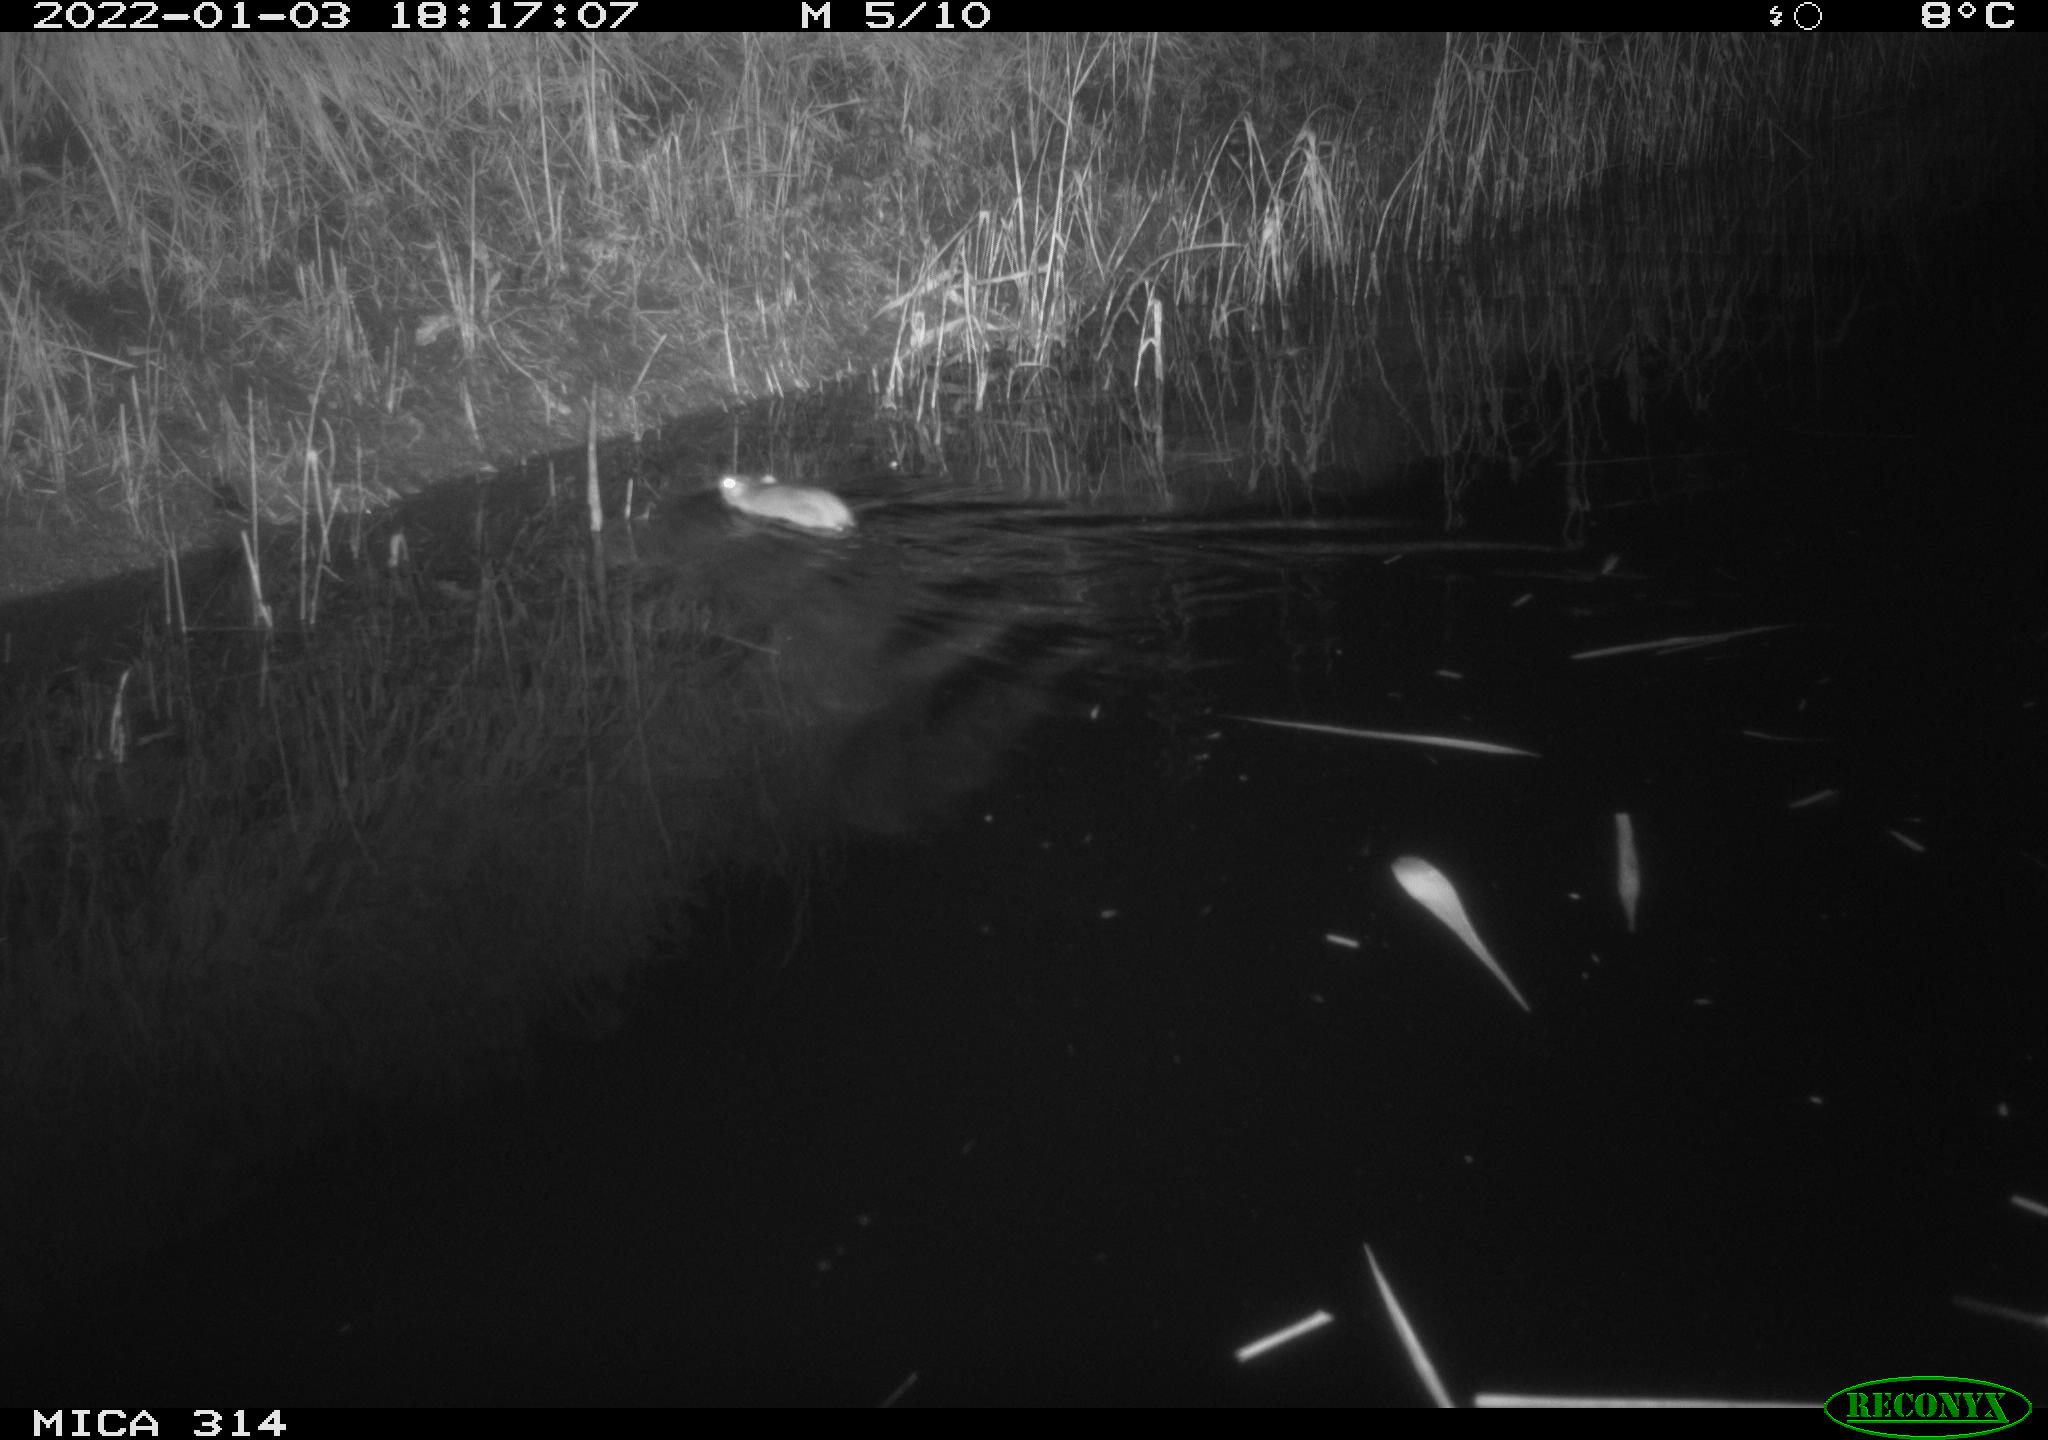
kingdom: Animalia
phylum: Chordata
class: Mammalia
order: Rodentia
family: Muridae
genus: Rattus
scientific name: Rattus norvegicus
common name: Brown rat
